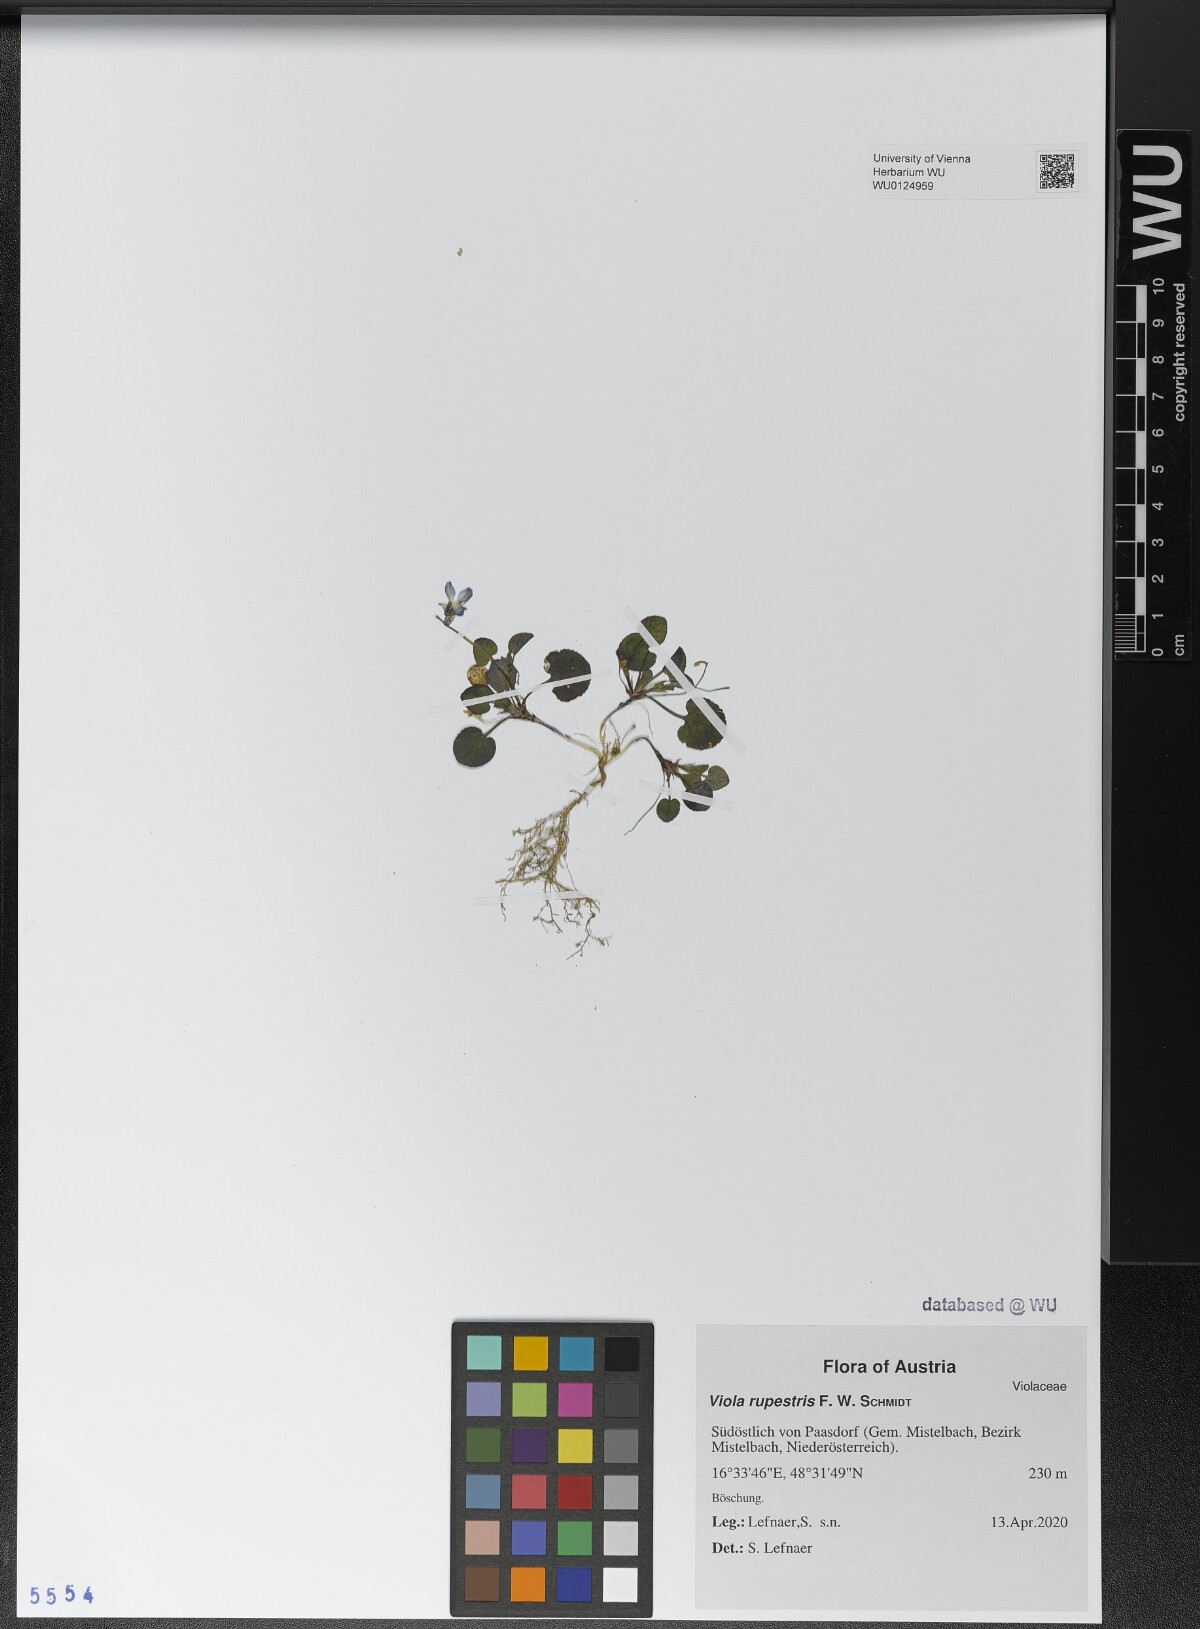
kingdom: Plantae
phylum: Tracheophyta
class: Magnoliopsida
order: Malpighiales
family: Violaceae
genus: Viola
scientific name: Viola rupestris
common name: Teesdale violet
